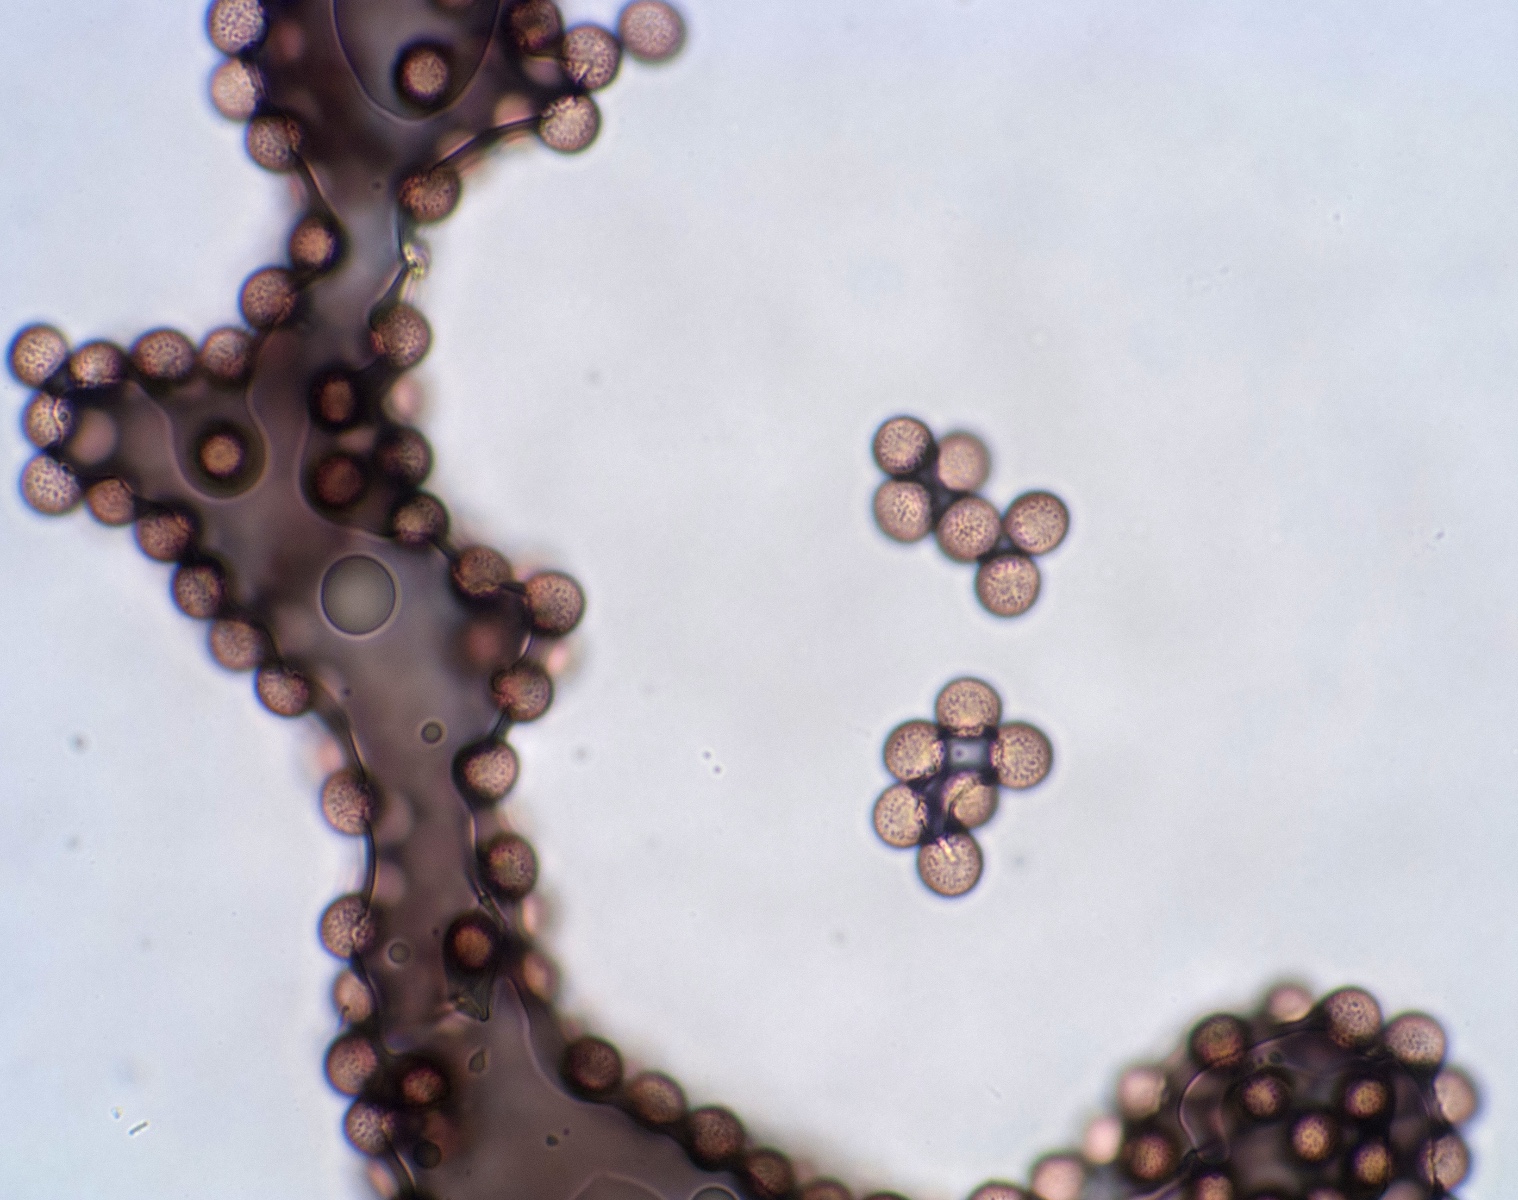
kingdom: Protozoa
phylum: Mycetozoa
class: Myxomycetes
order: Physarales
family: Physaraceae
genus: Fuligo
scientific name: Fuligo leviderma
